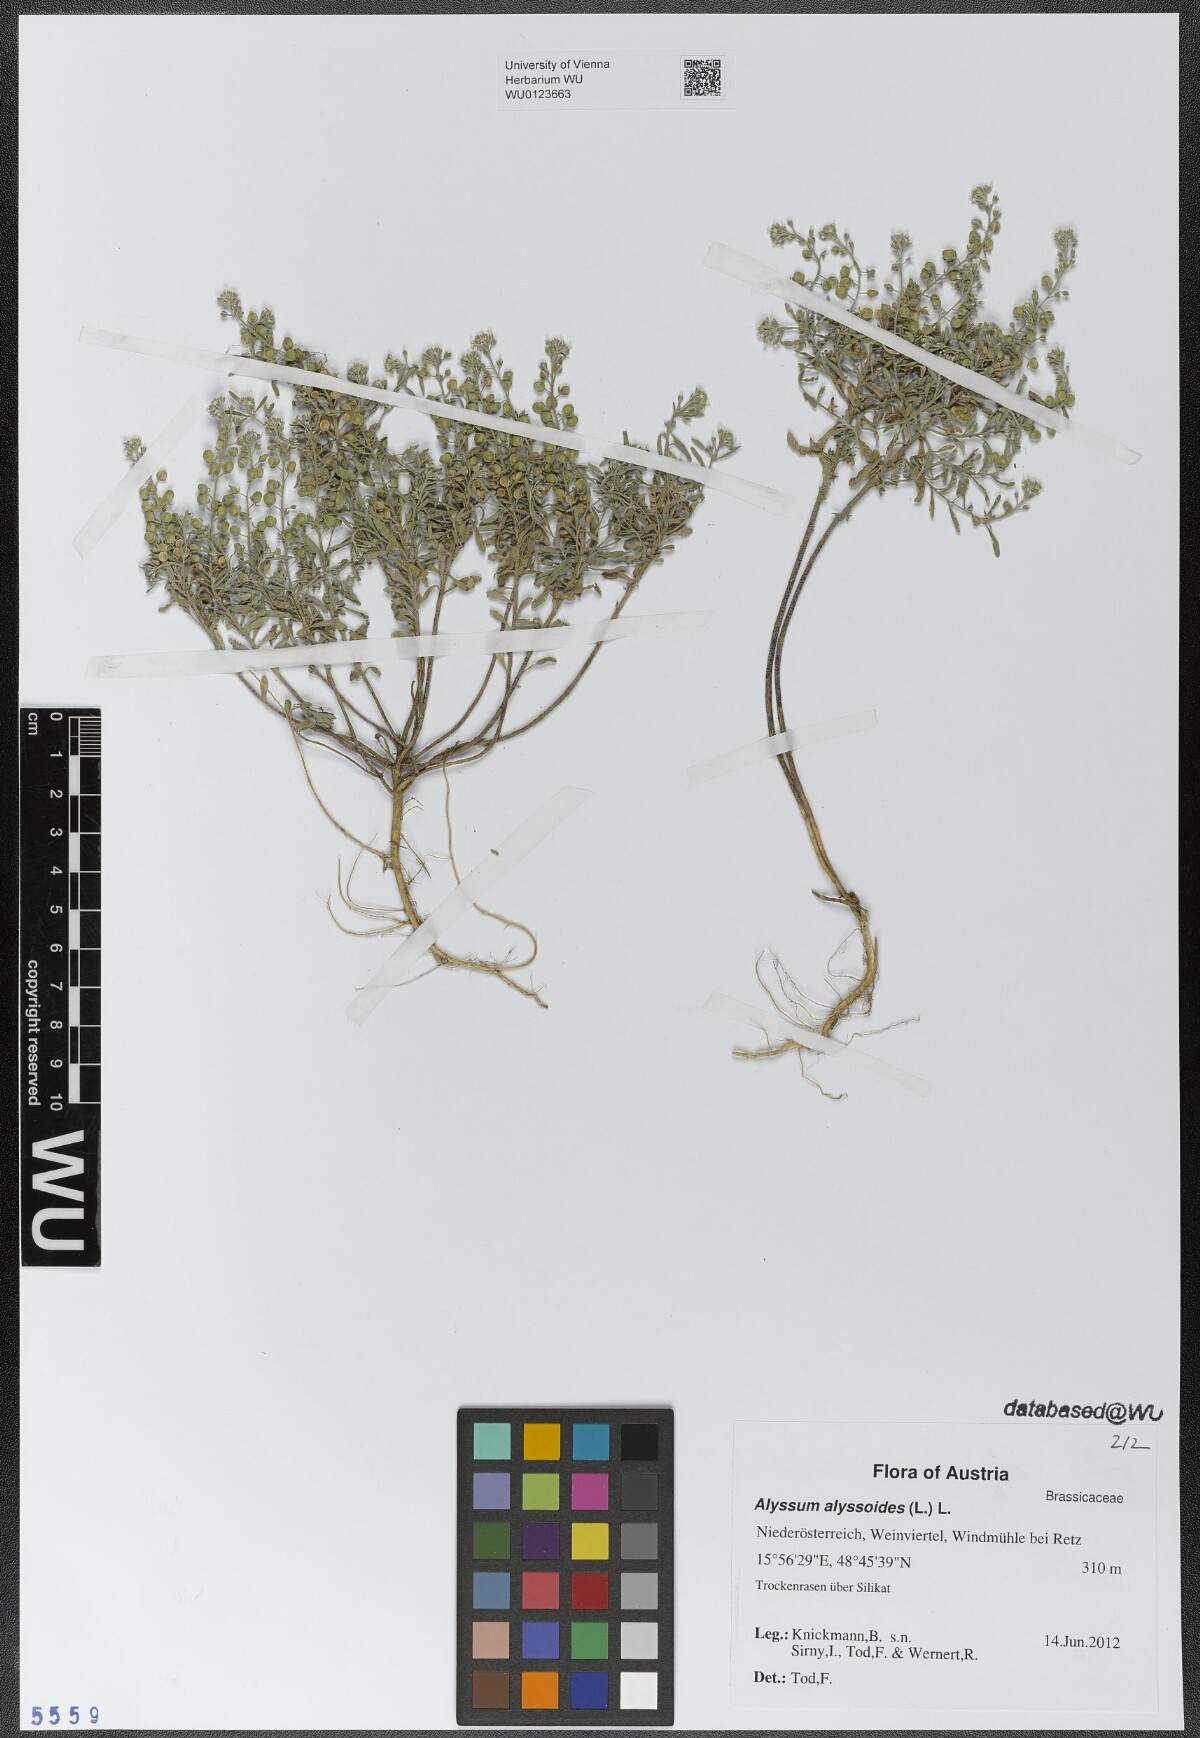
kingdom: Plantae
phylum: Tracheophyta
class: Magnoliopsida
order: Brassicales
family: Brassicaceae
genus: Alyssum
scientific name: Alyssum alyssoides
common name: Small alison
